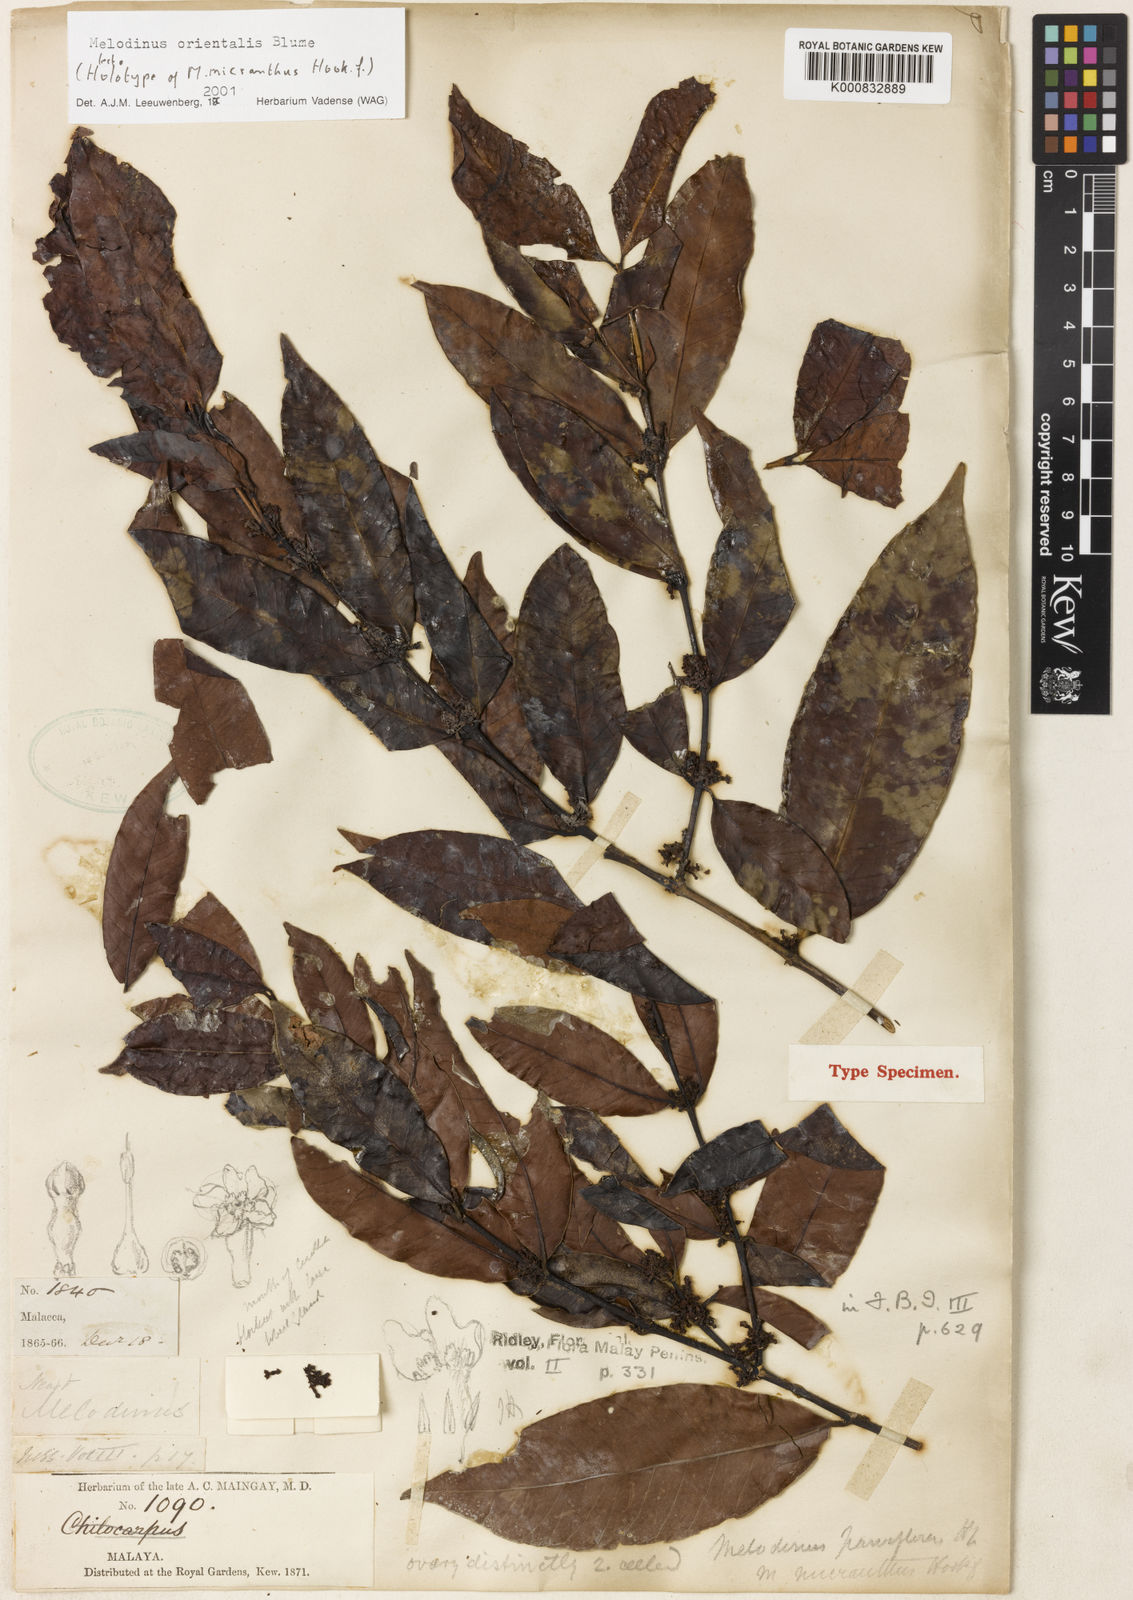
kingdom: Plantae
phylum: Tracheophyta
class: Magnoliopsida
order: Gentianales
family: Apocynaceae
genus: Melodinus
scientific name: Melodinus orientalis
